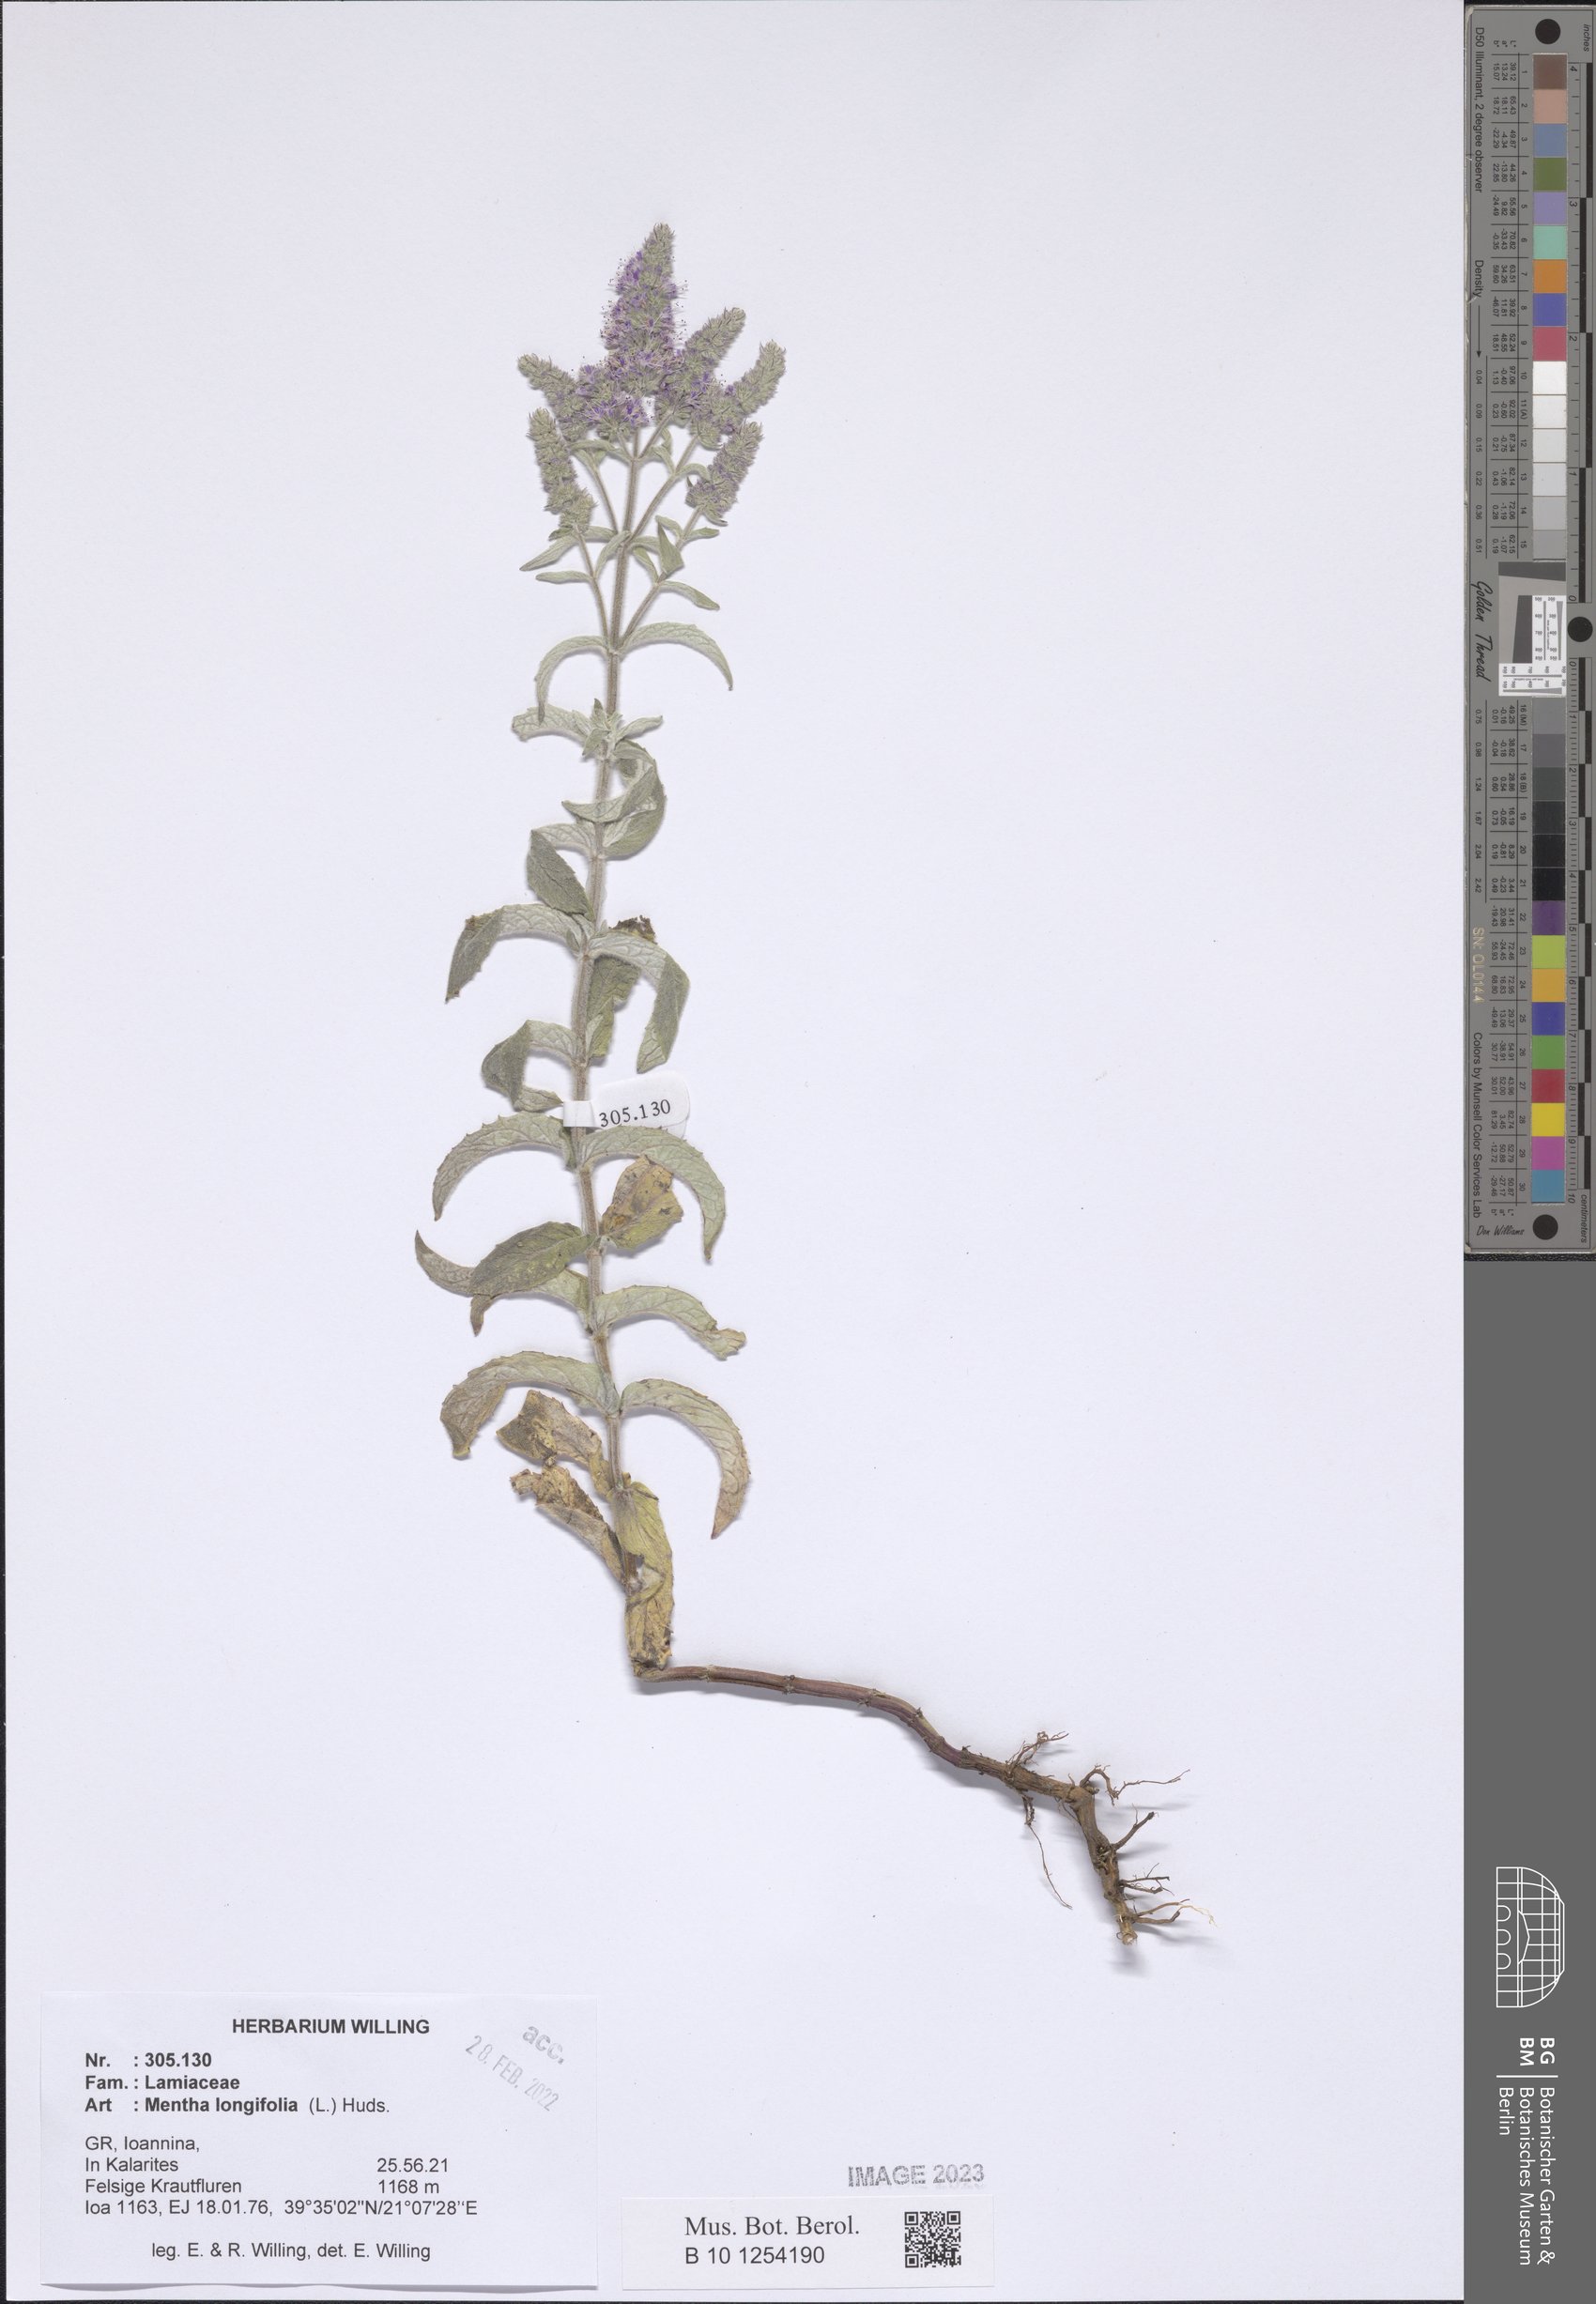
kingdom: Plantae
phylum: Tracheophyta
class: Magnoliopsida
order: Lamiales
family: Lamiaceae
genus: Mentha
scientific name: Mentha longifolia
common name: Horse mint
